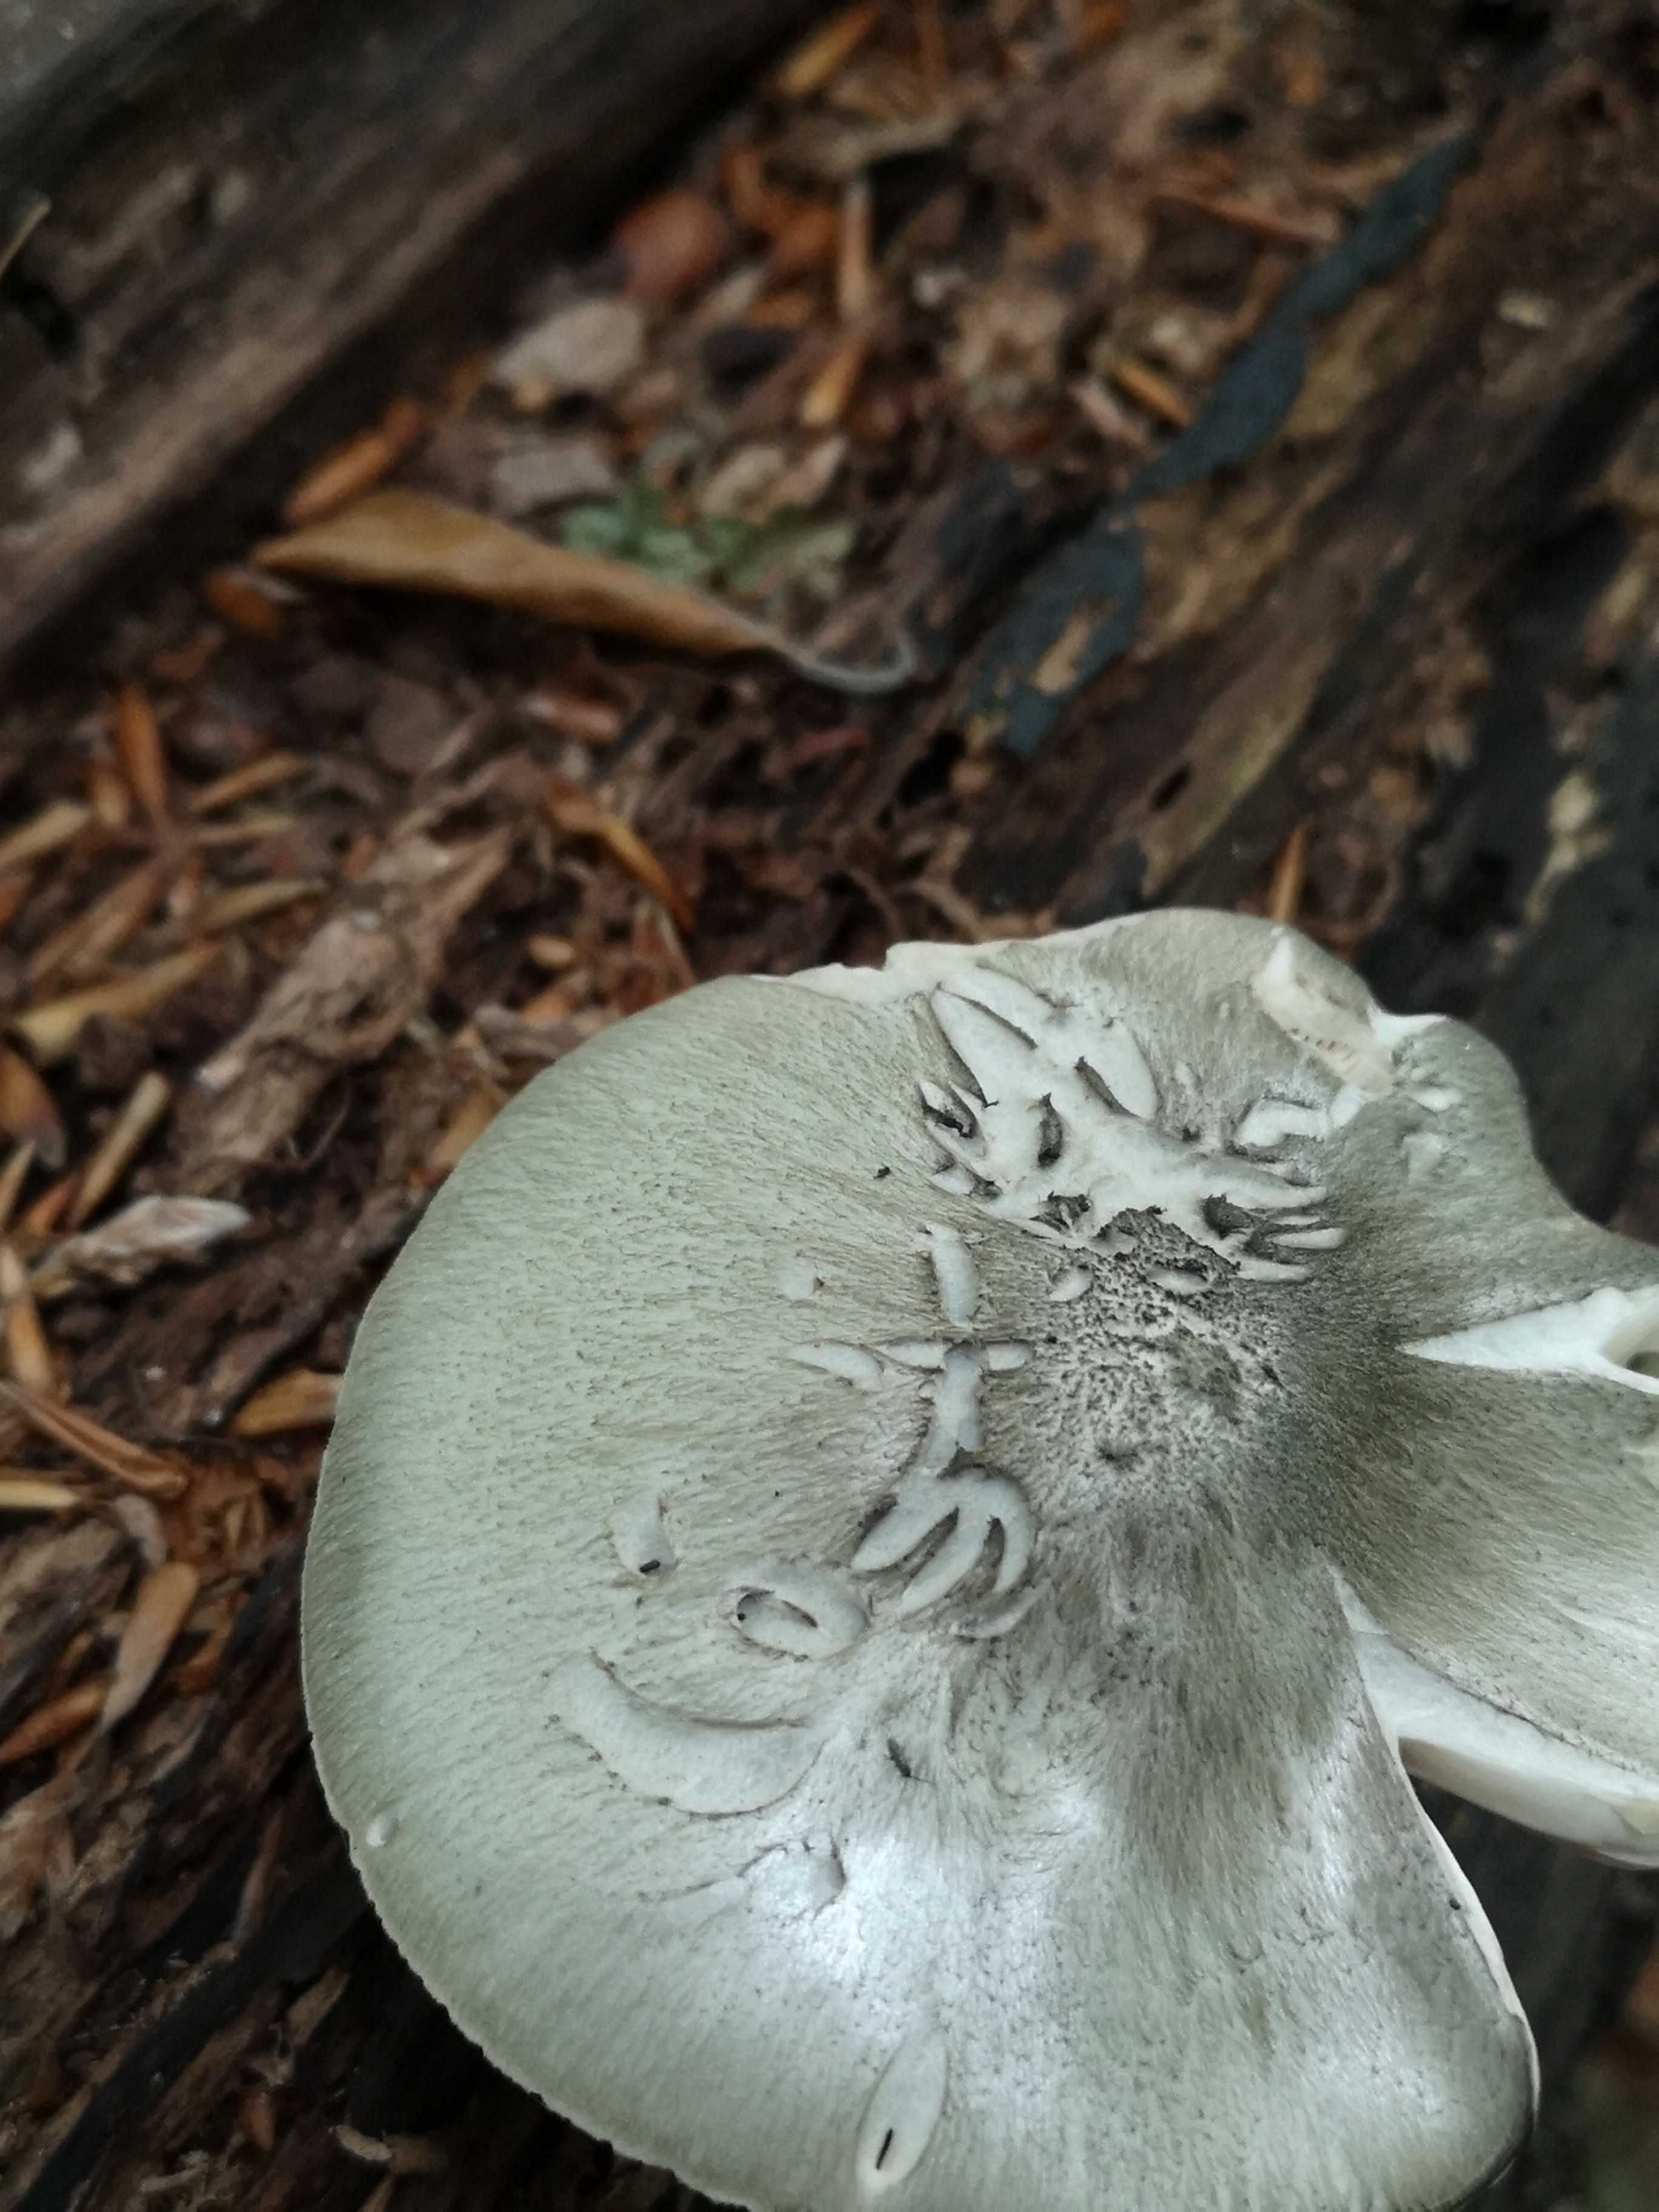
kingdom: Fungi
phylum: Basidiomycota
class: Agaricomycetes
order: Agaricales
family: Pluteaceae
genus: Pluteus
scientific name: Pluteus salicinus
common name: stiv skærmhat
